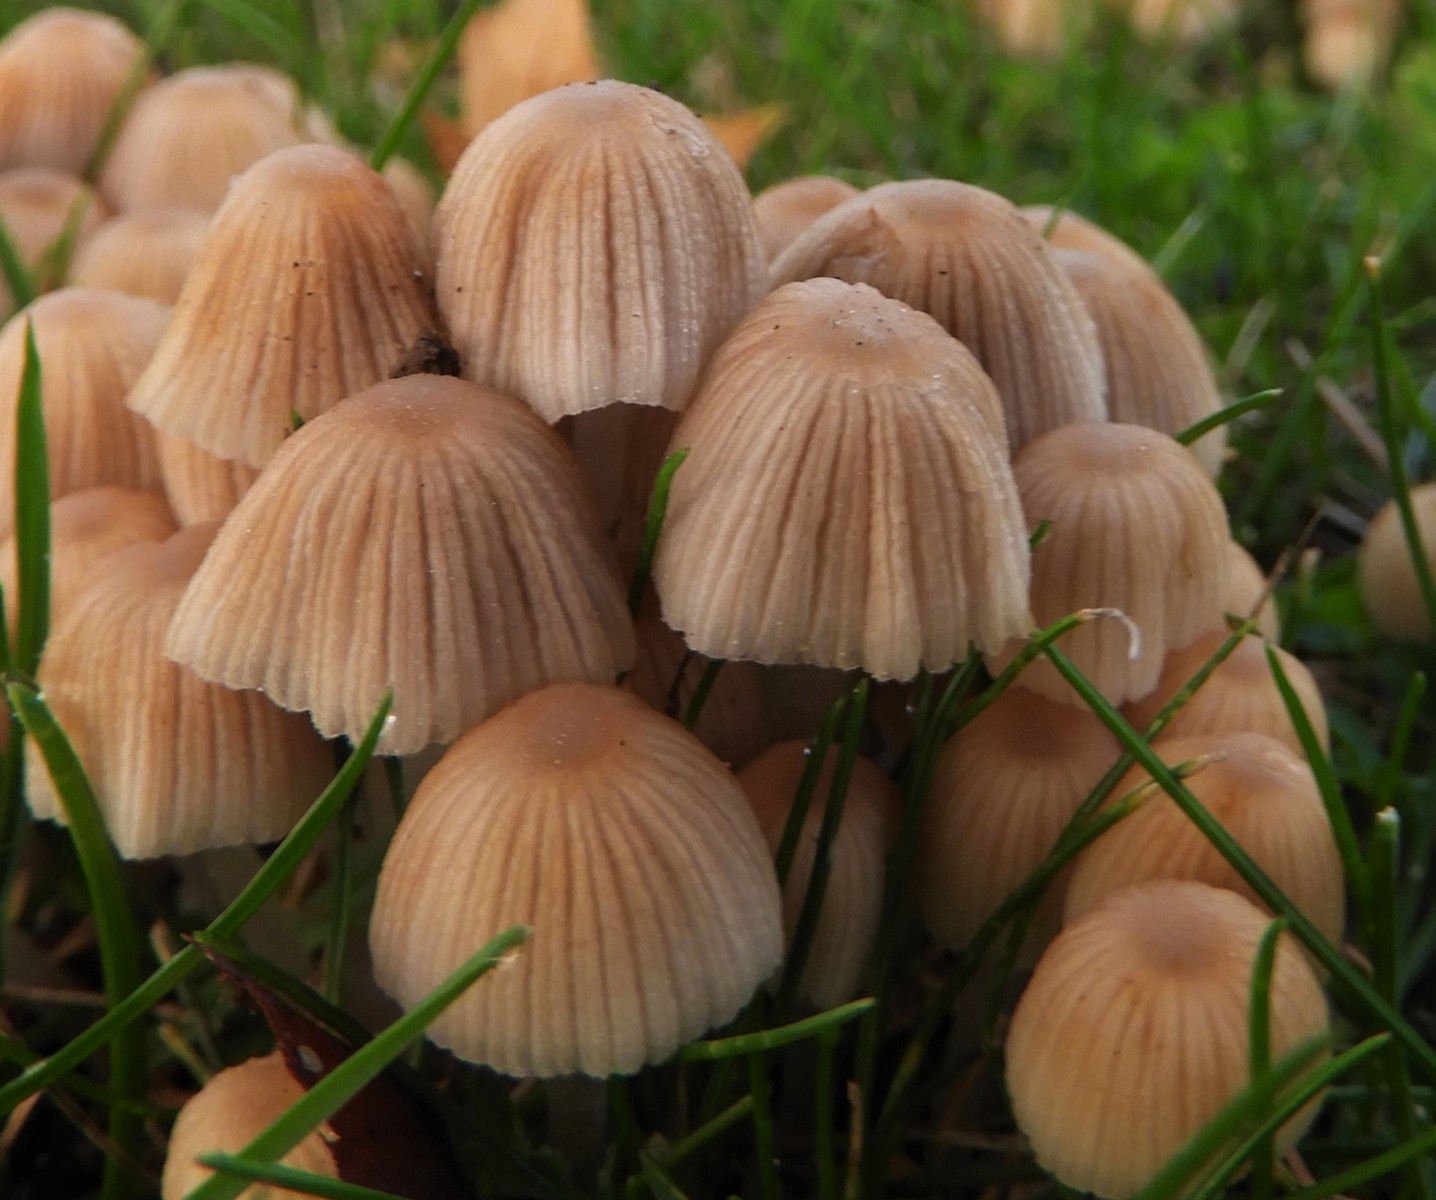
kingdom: Fungi
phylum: Basidiomycota
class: Agaricomycetes
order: Agaricales
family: Psathyrellaceae
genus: Coprinellus
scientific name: Coprinellus disseminatus
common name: bredsået blækhat
